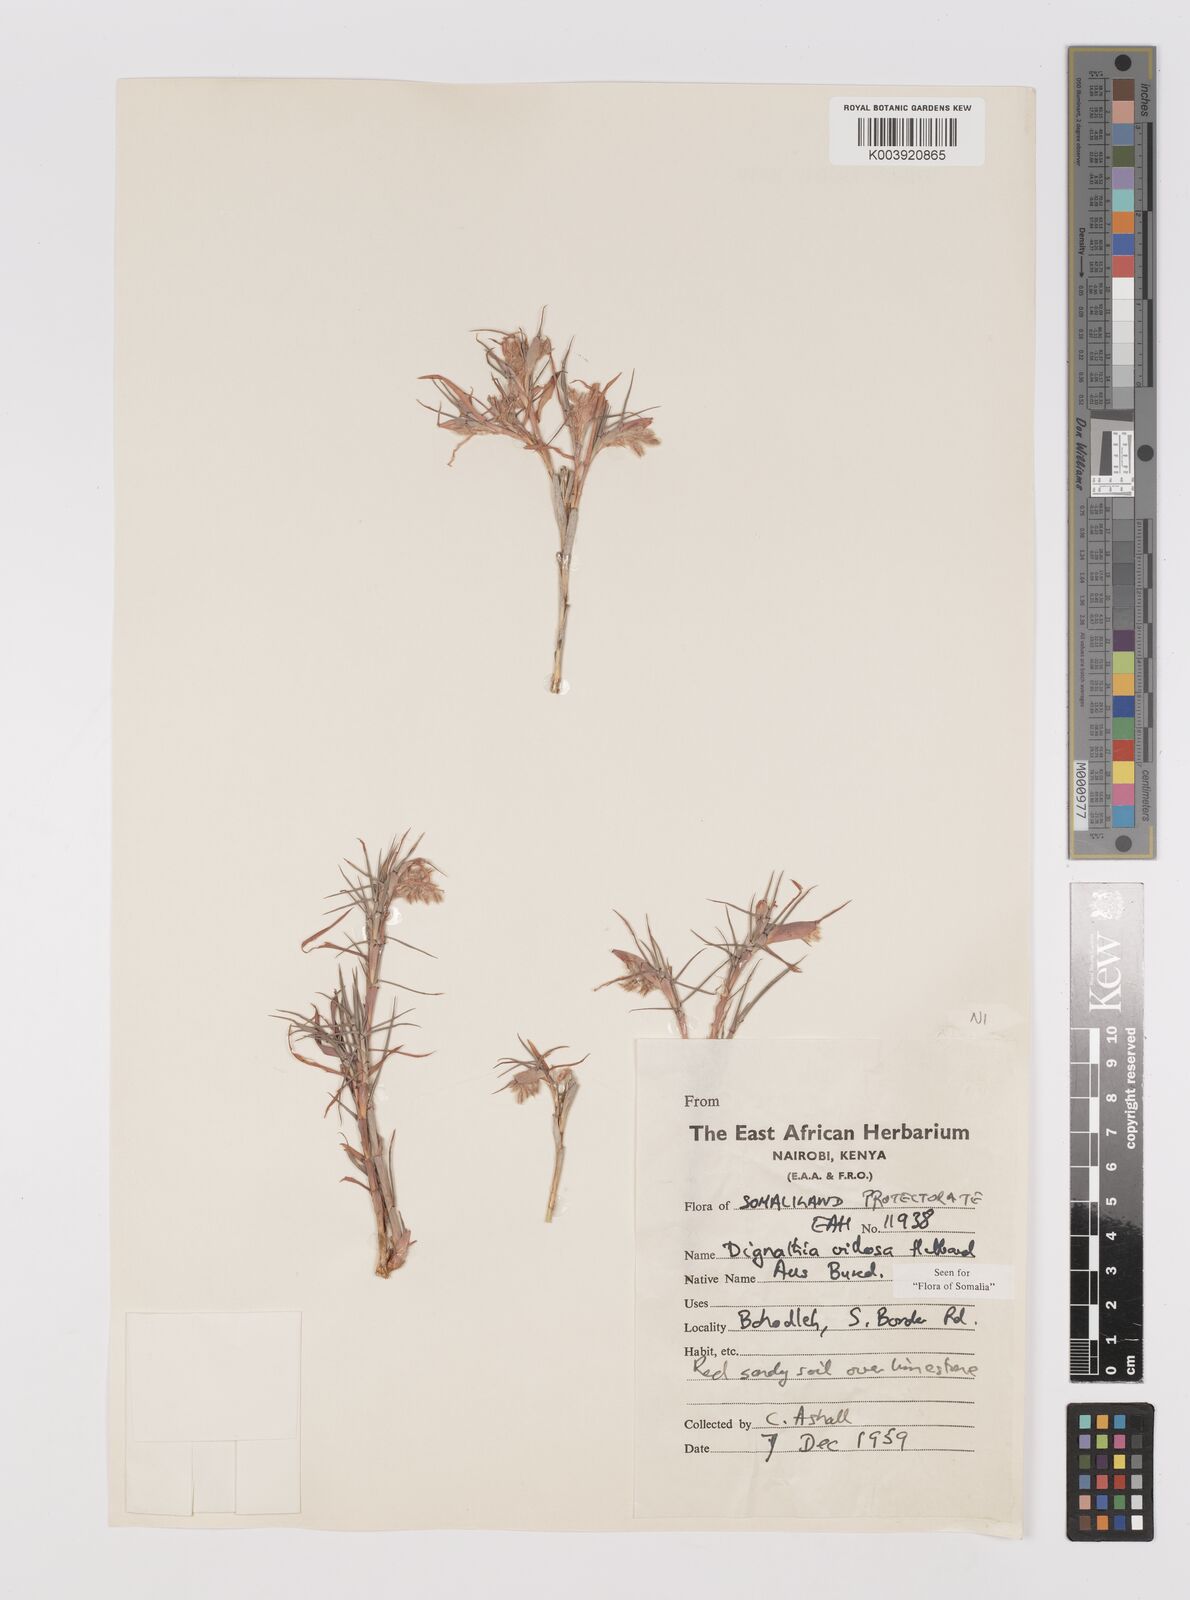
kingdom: Plantae
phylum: Tracheophyta
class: Liliopsida
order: Poales
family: Poaceae
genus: Dignathia
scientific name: Dignathia villosa
